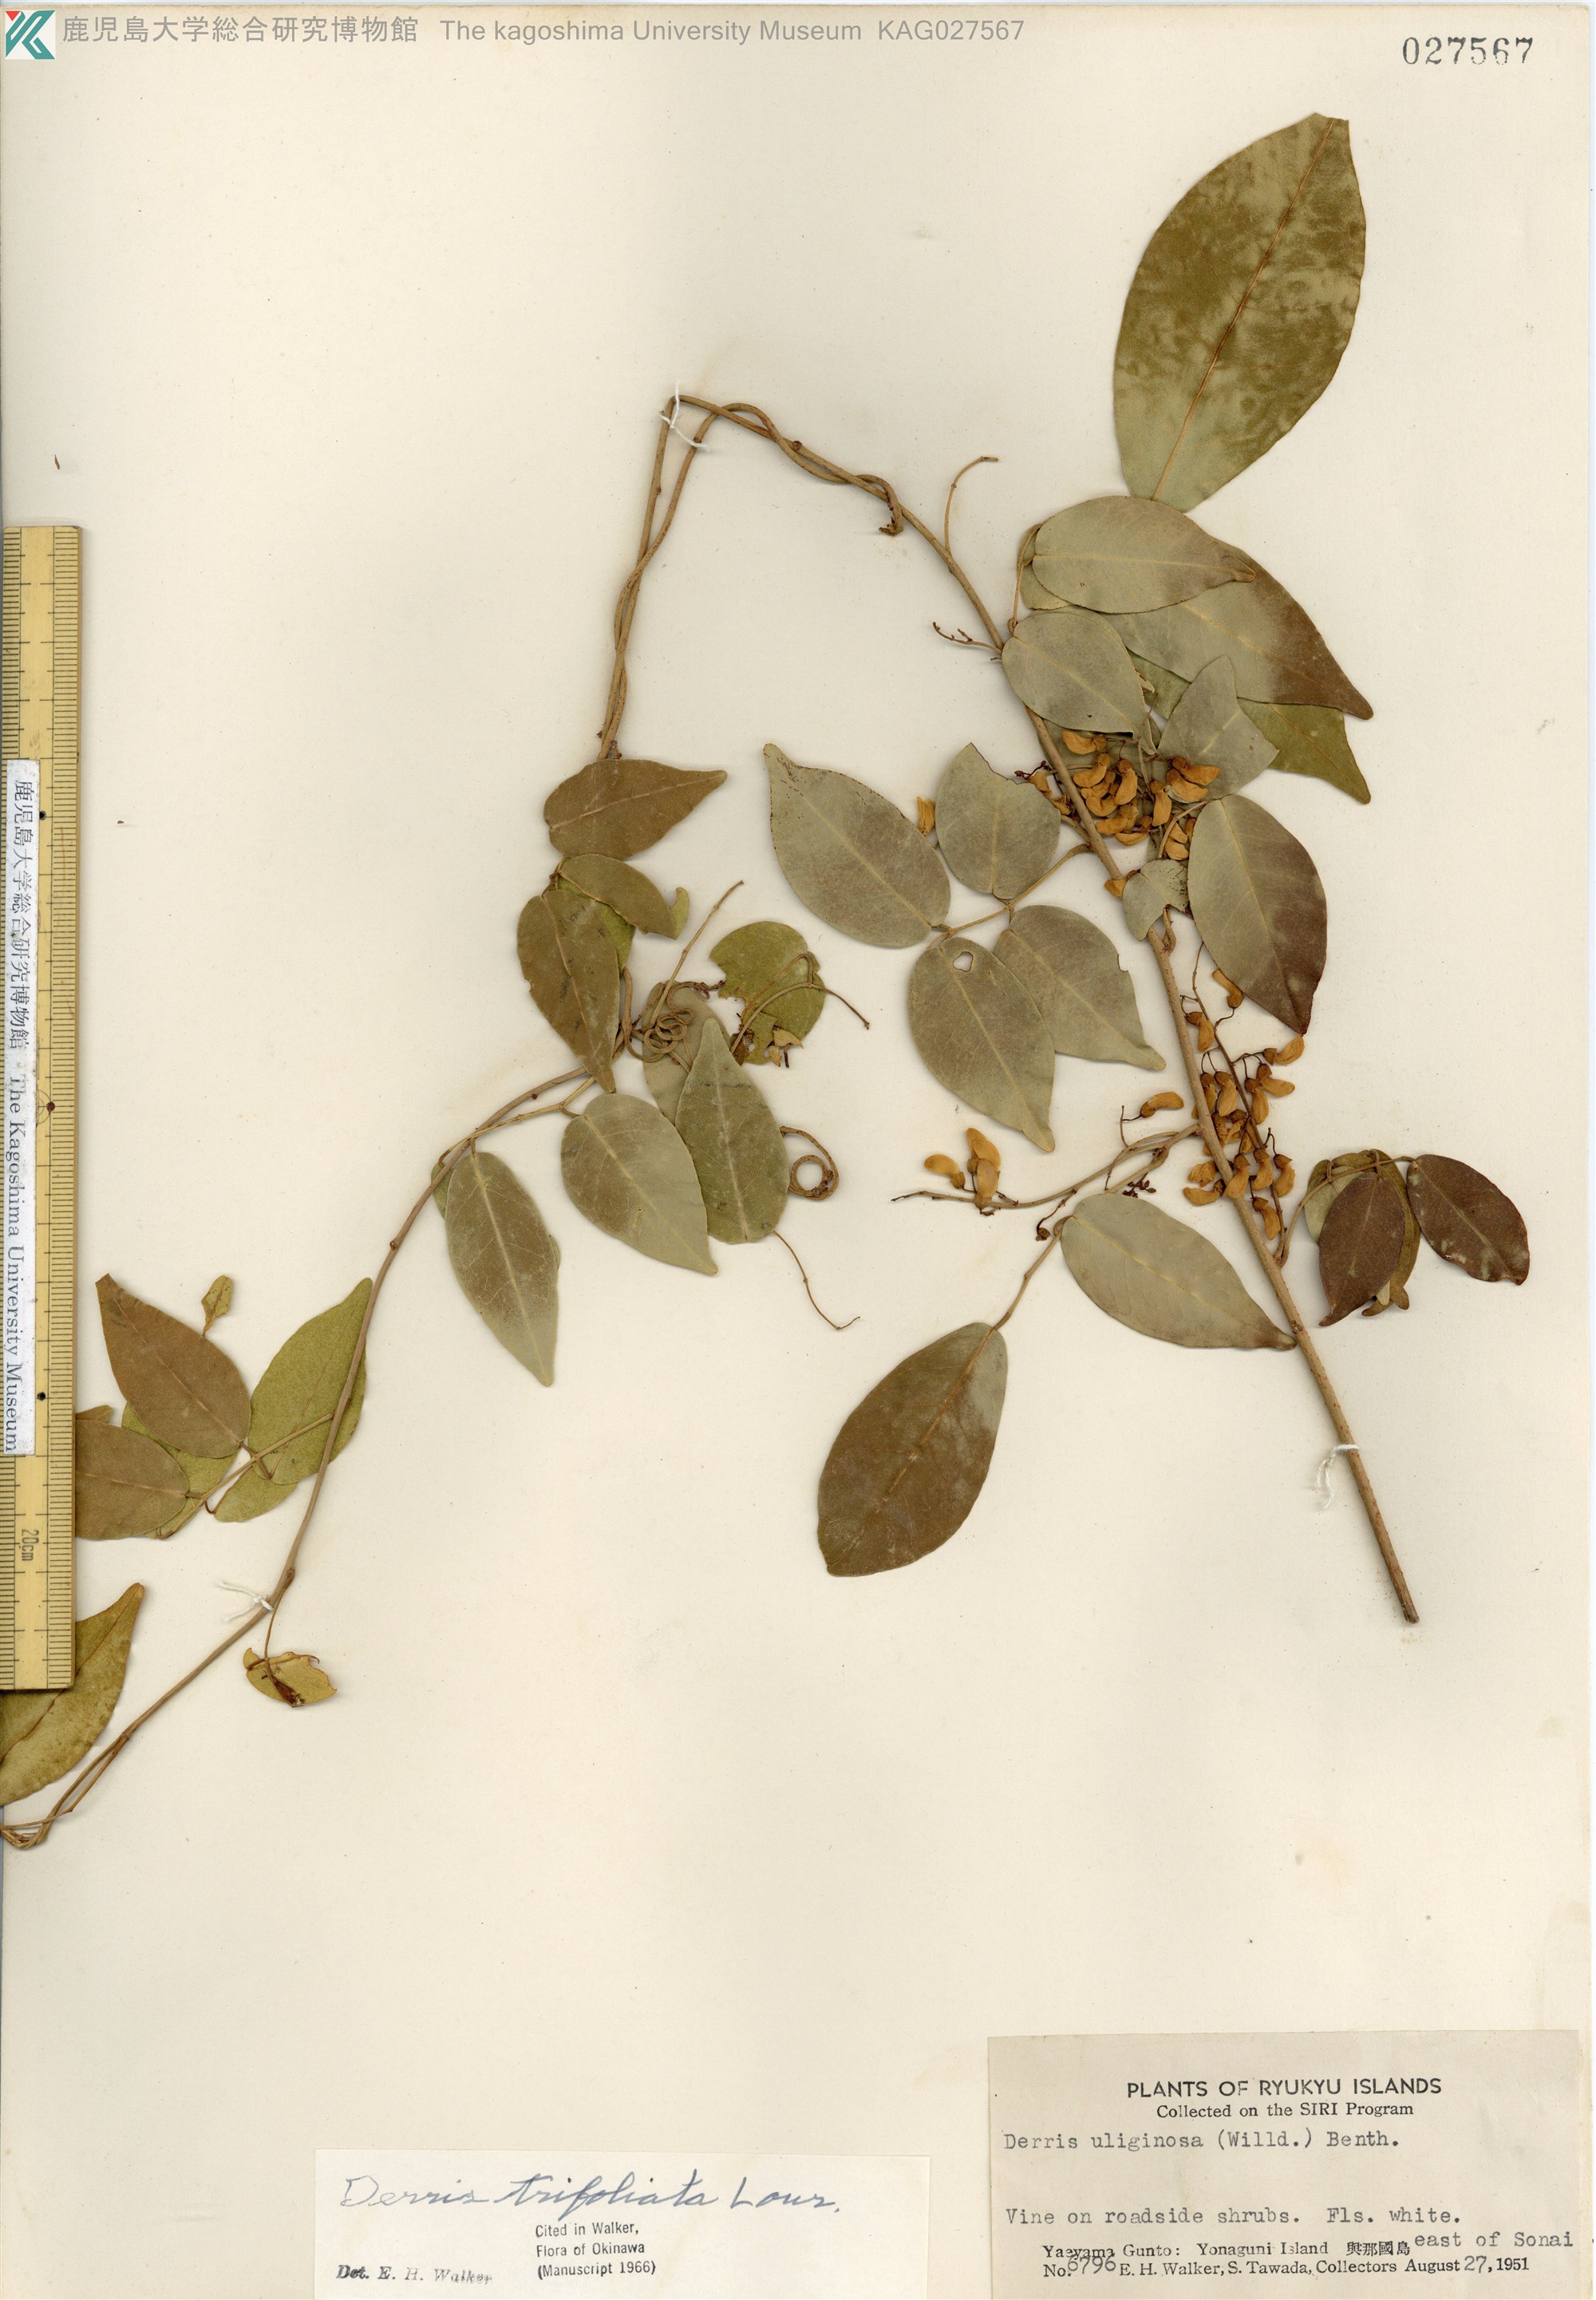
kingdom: Plantae
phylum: Tracheophyta
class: Magnoliopsida
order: Fabales
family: Fabaceae
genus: Derris
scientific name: Derris trifoliata
